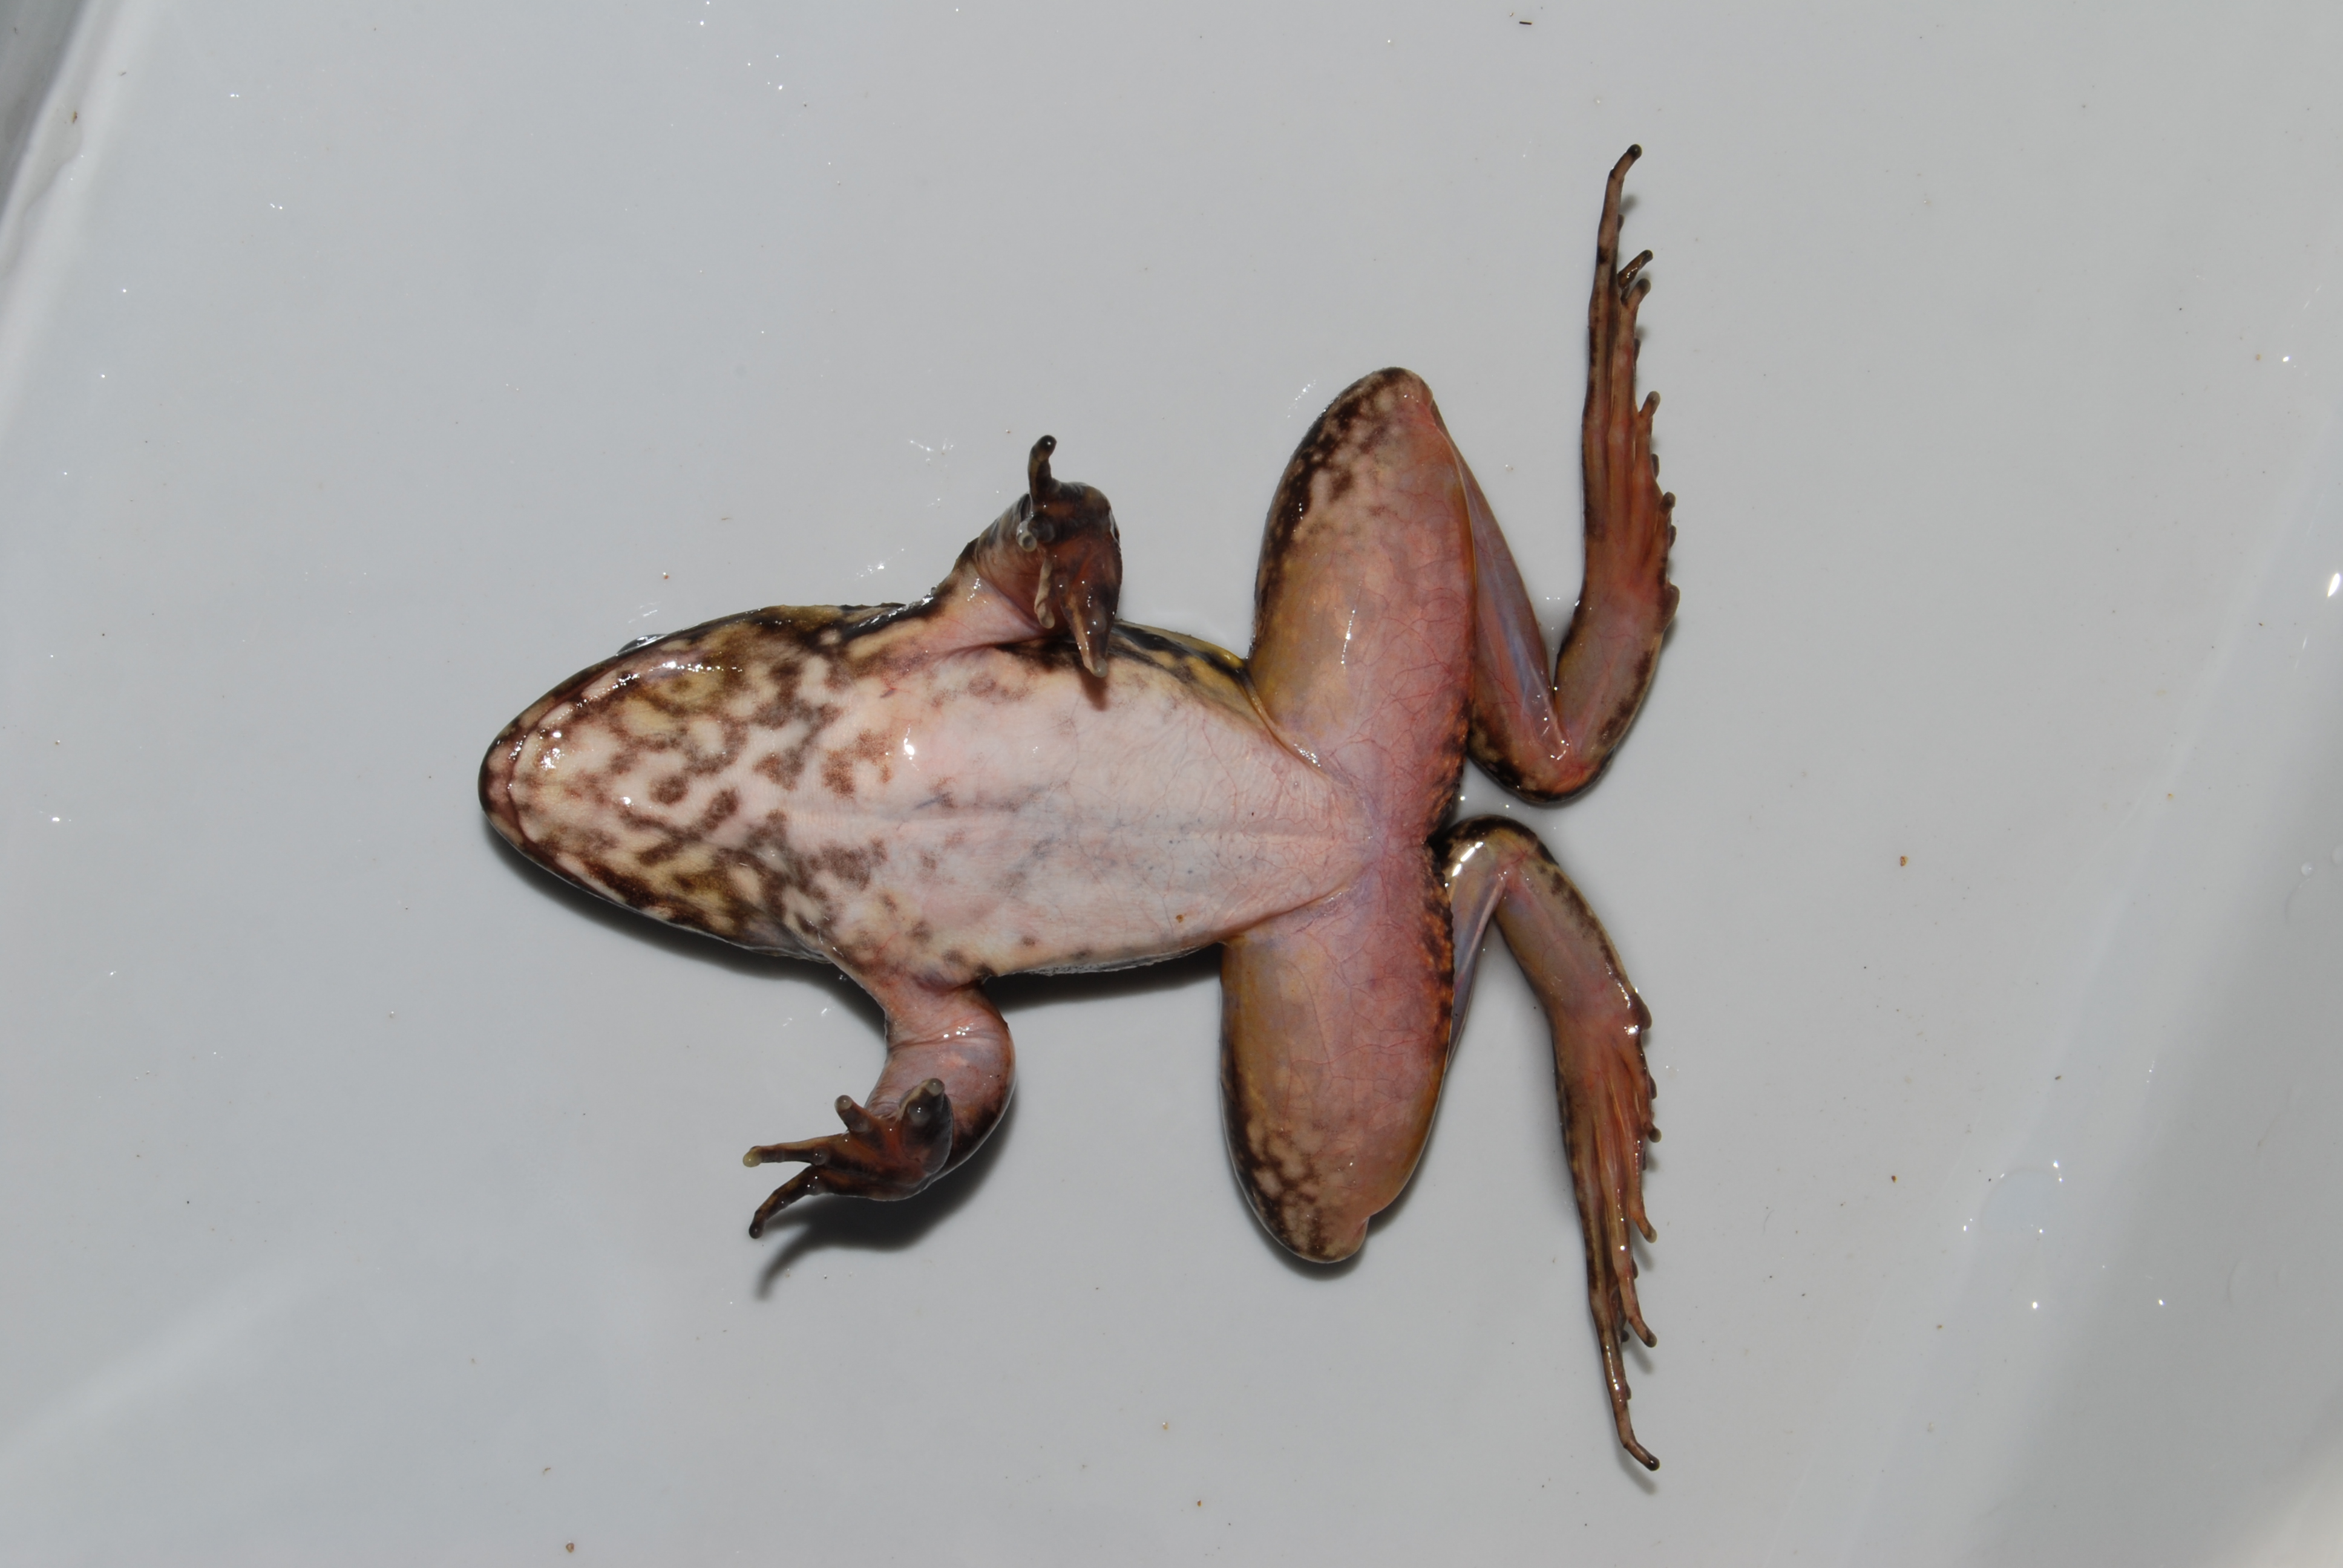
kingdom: Animalia
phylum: Chordata
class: Amphibia
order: Anura
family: Pyxicephalidae
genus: Amietia
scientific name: Amietia fuscigula
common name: Cape rana
